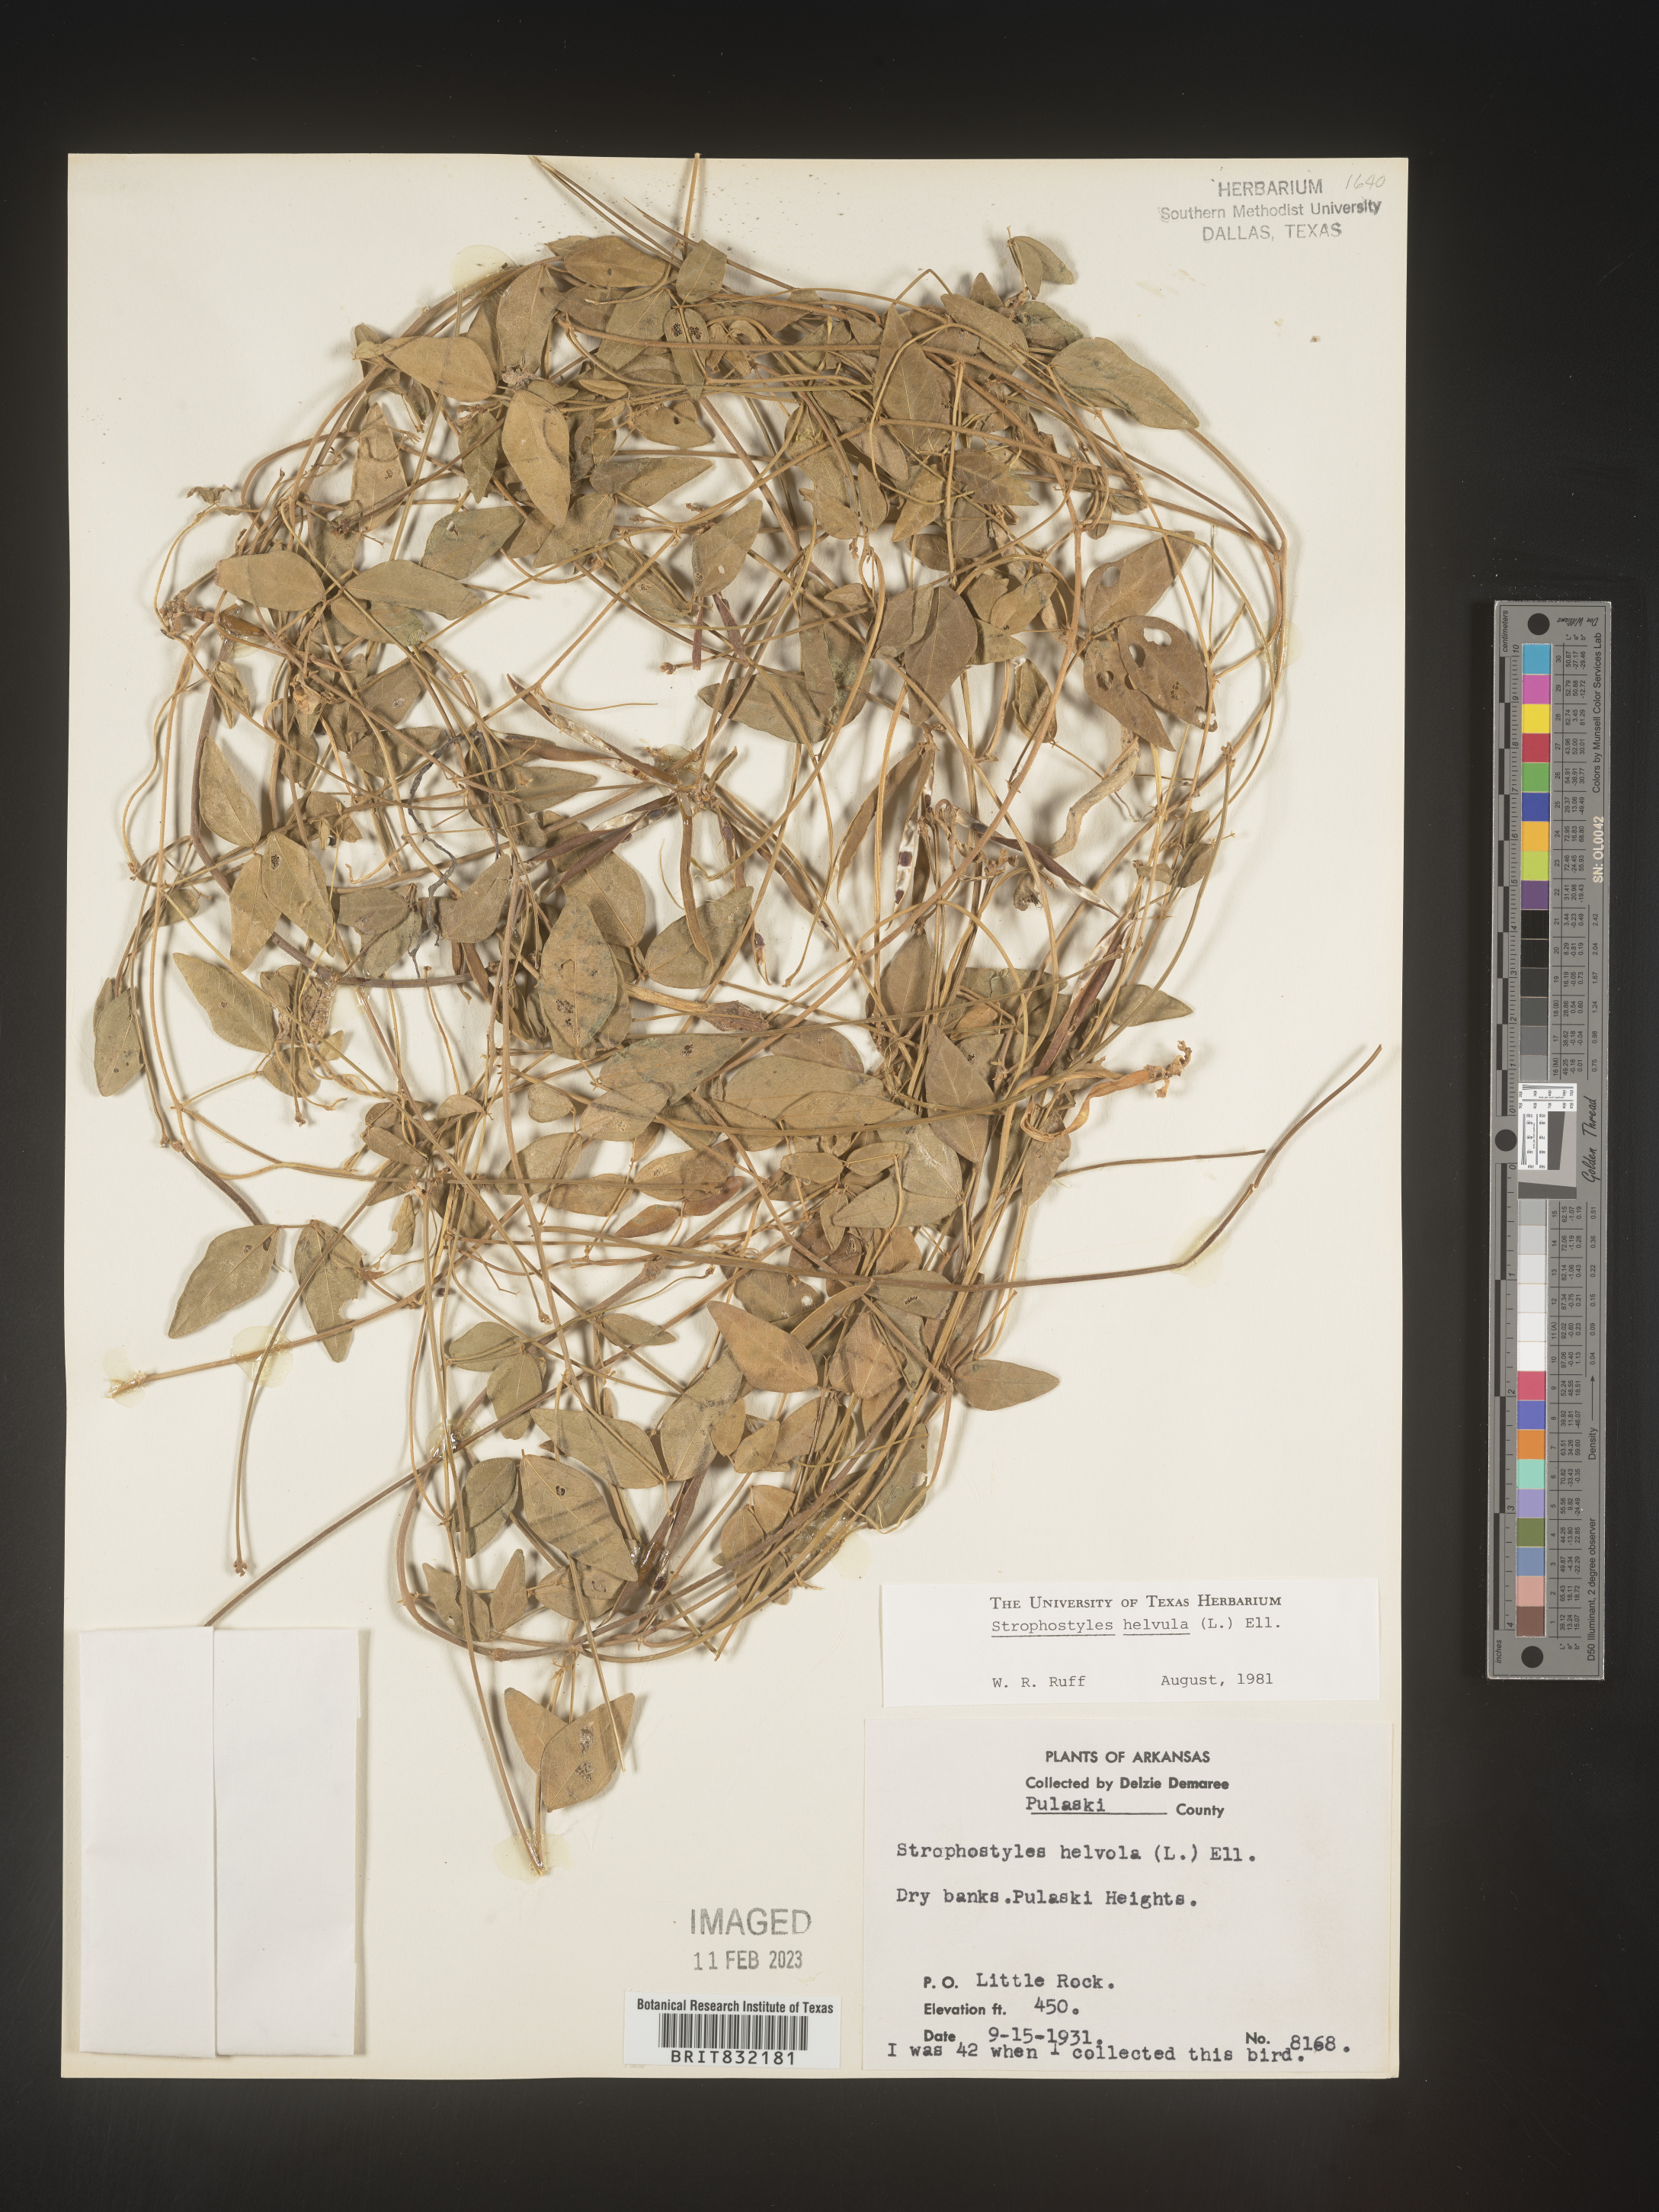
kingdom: Plantae
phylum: Tracheophyta
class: Magnoliopsida
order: Fabales
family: Fabaceae
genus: Strophostyles
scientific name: Strophostyles helvola
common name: Trailing wild bean
